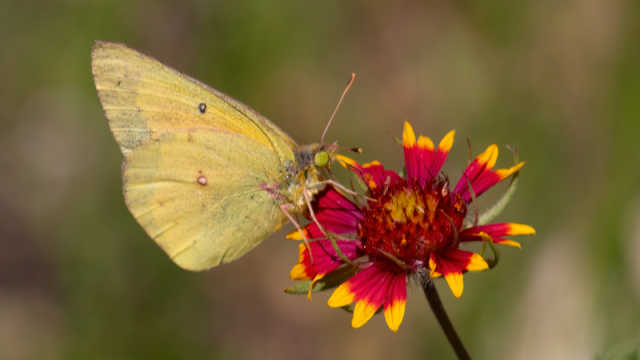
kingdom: Animalia
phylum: Arthropoda
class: Insecta
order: Lepidoptera
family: Pieridae
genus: Colias
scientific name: Colias eurytheme
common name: Orange Sulphur
